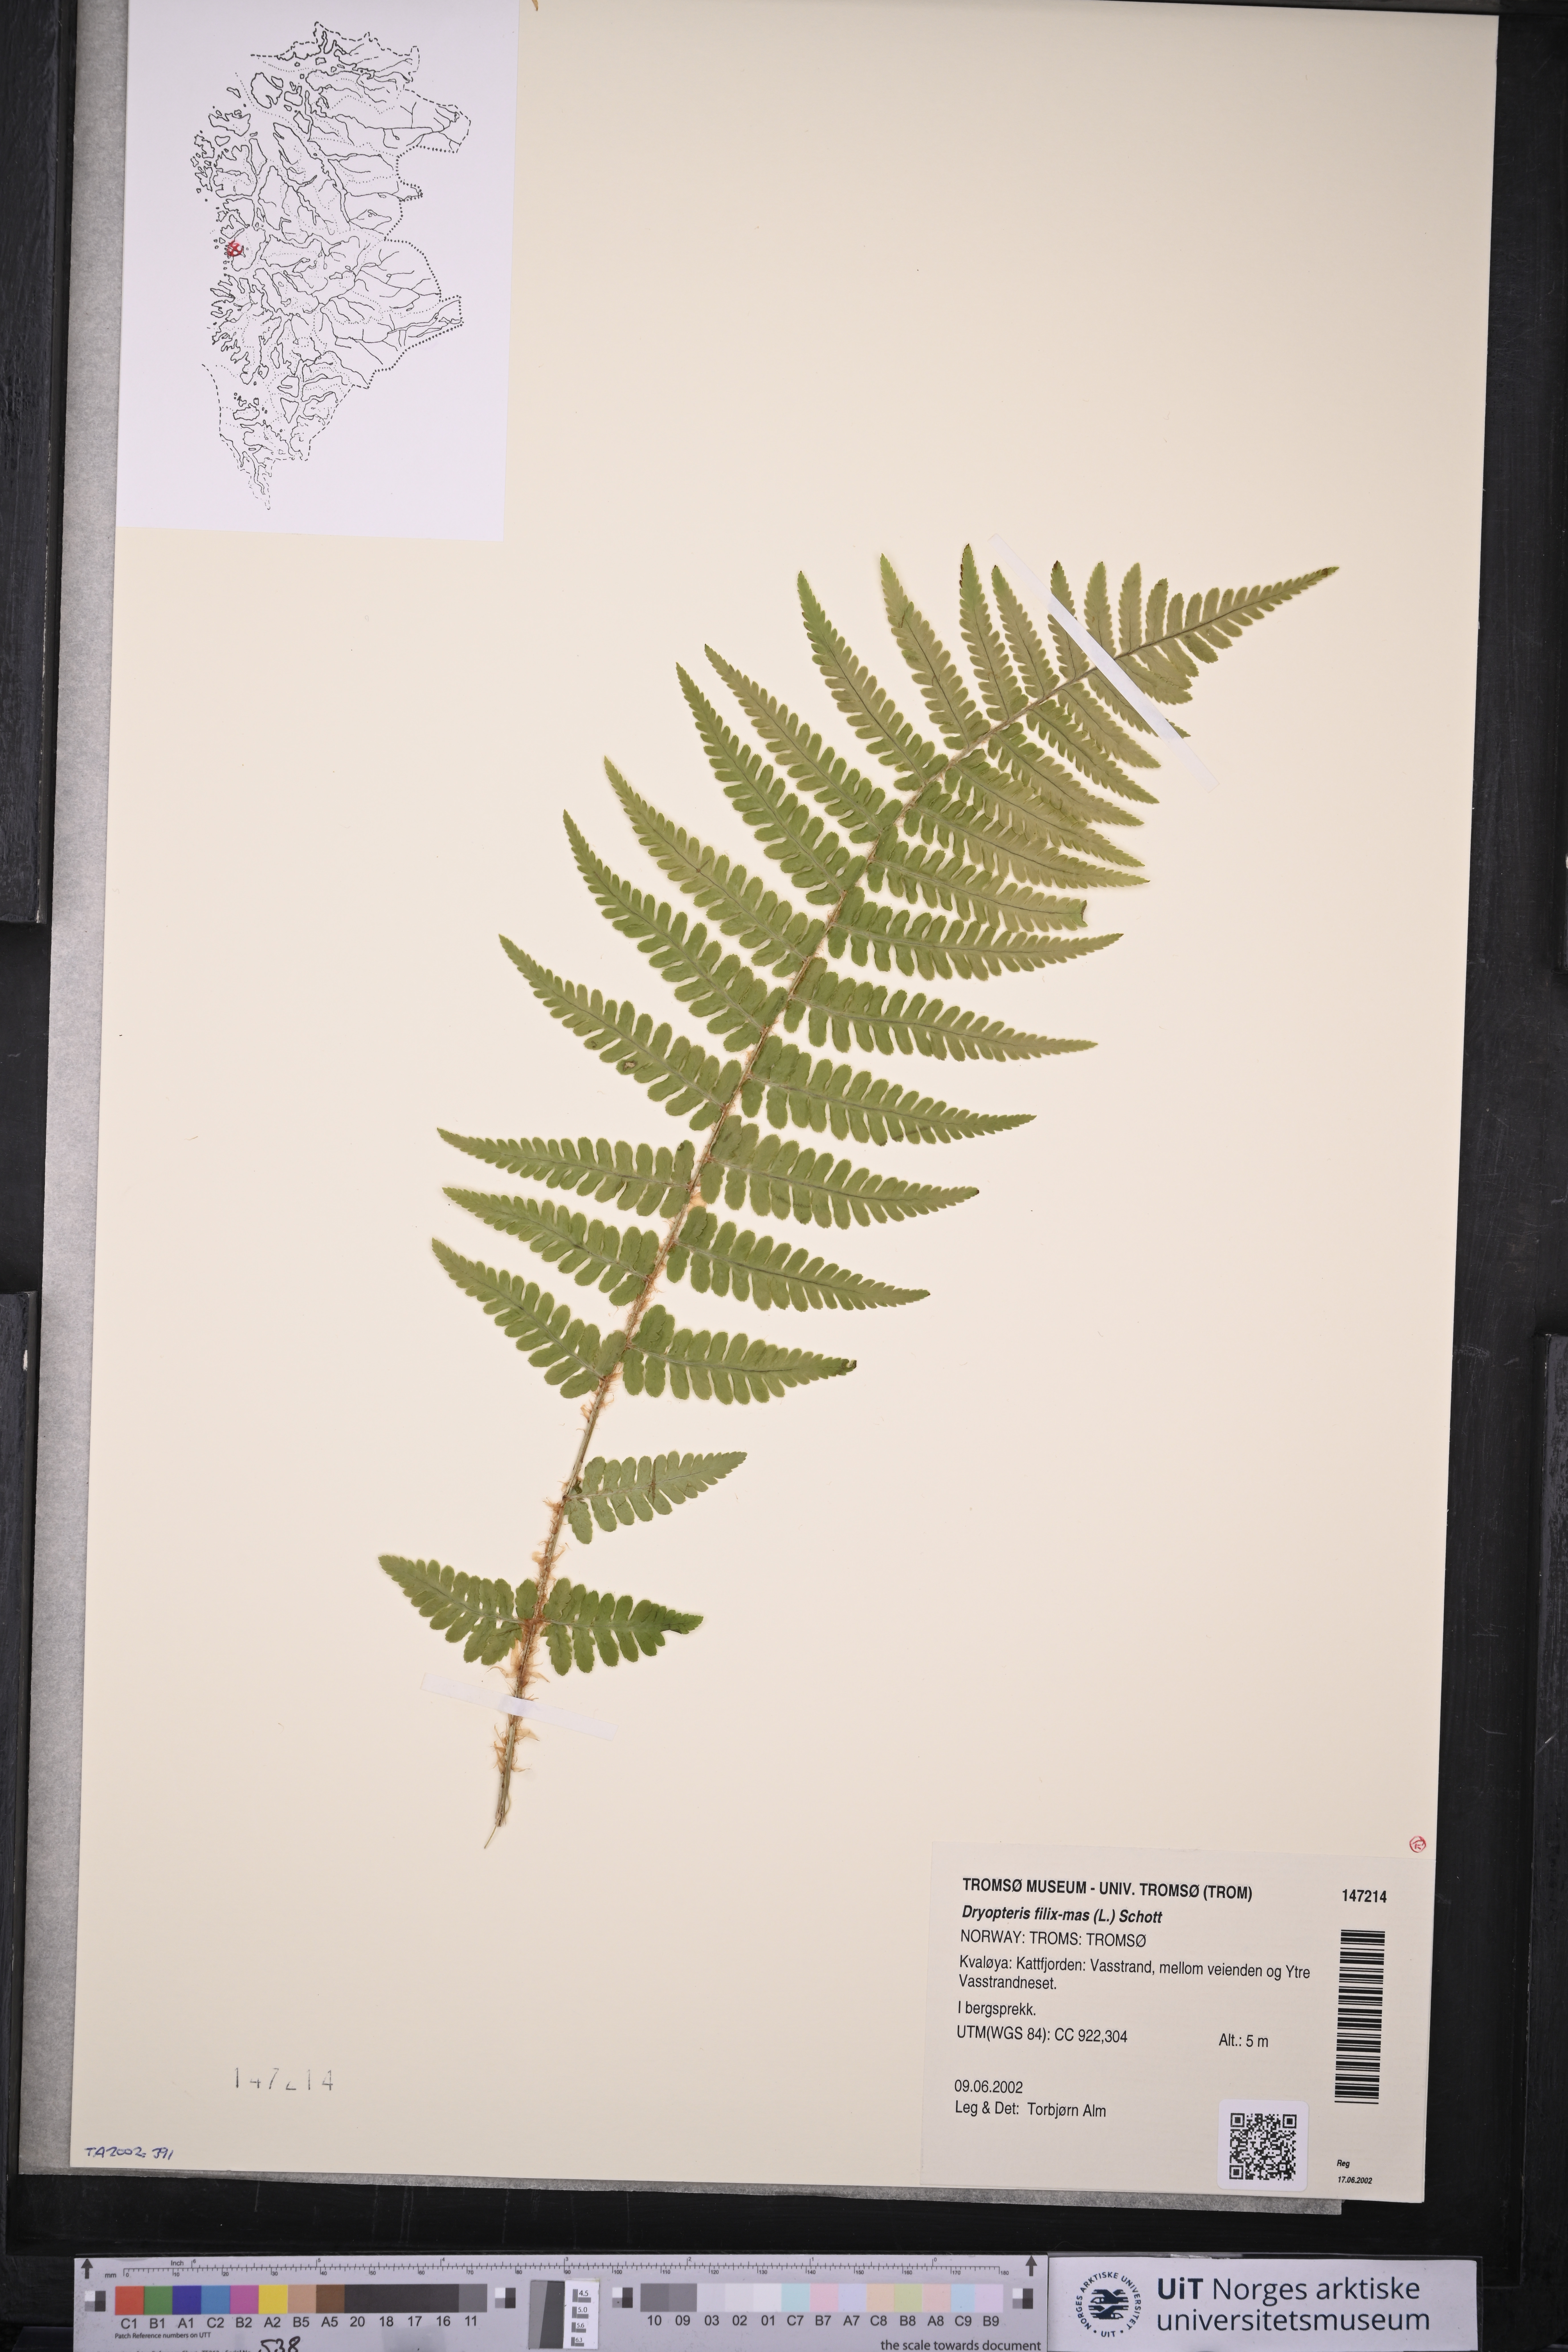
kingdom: Plantae
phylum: Tracheophyta
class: Polypodiopsida
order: Polypodiales
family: Dryopteridaceae
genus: Dryopteris
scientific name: Dryopteris filix-mas
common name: Male fern
